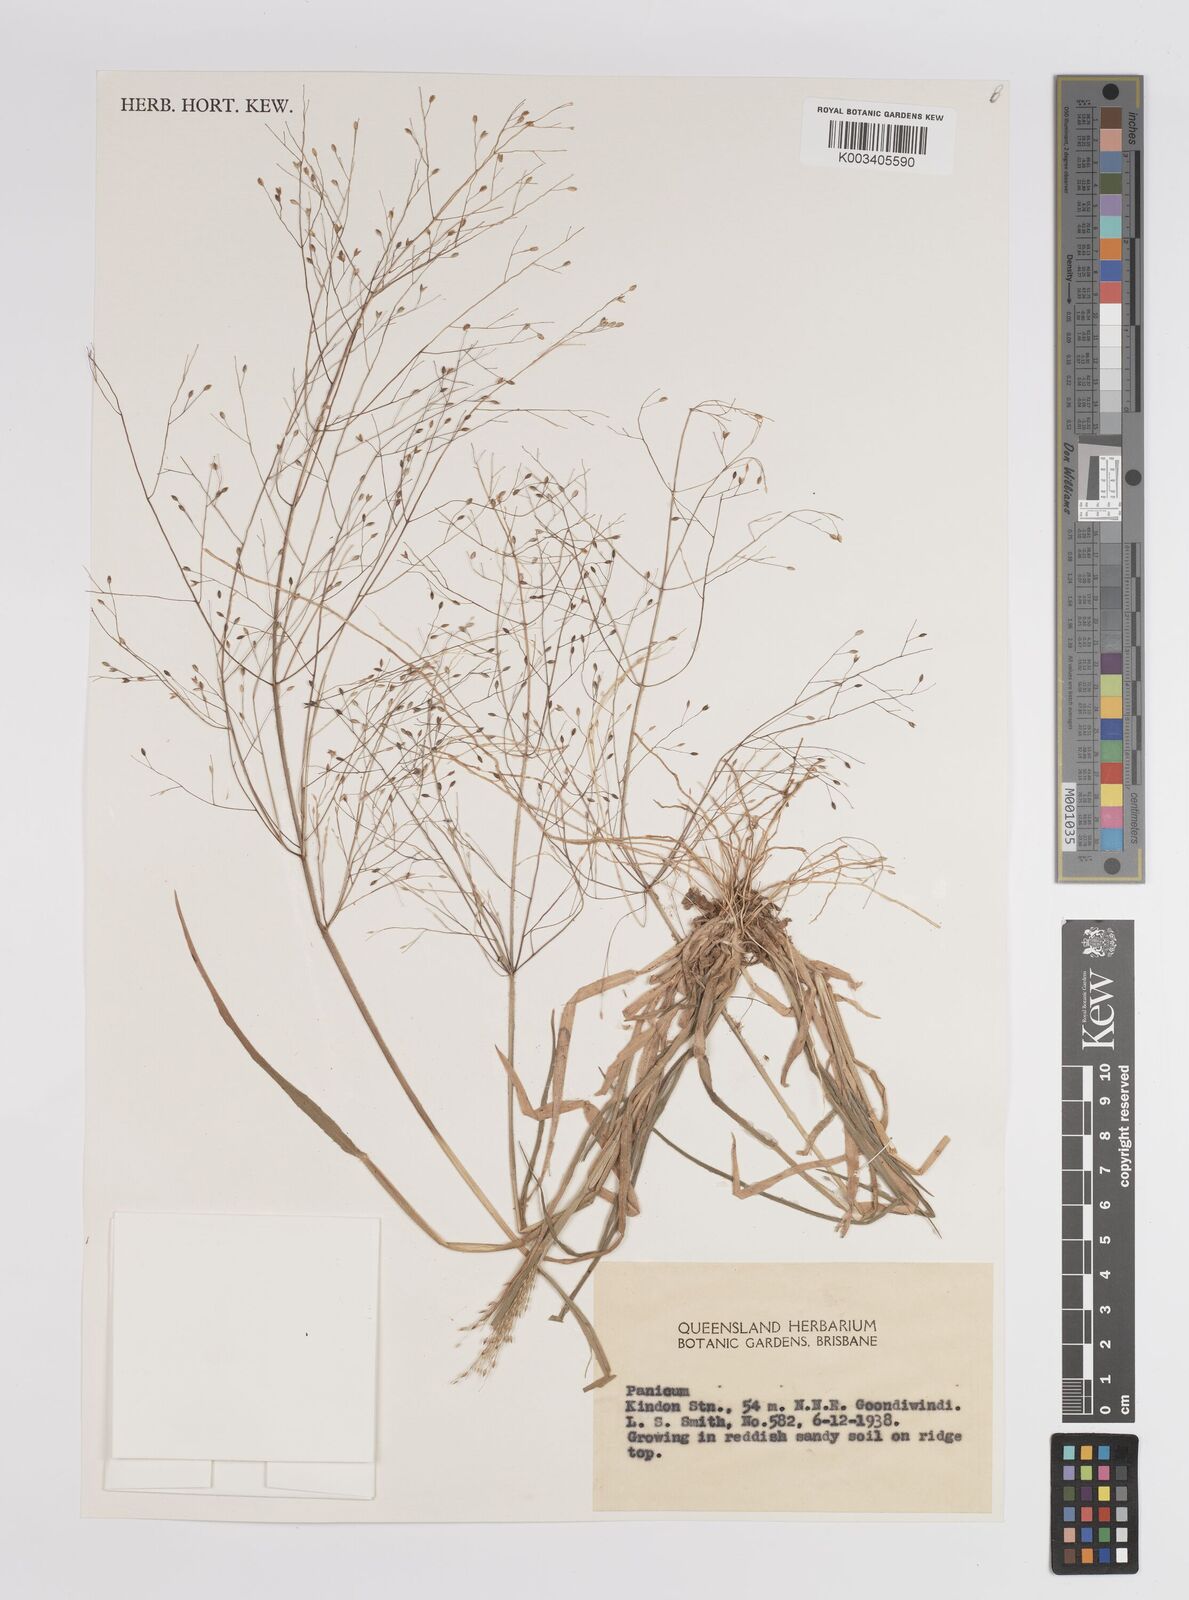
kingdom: Plantae
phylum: Tracheophyta
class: Liliopsida
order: Poales
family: Poaceae
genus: Panicum
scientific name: Panicum
